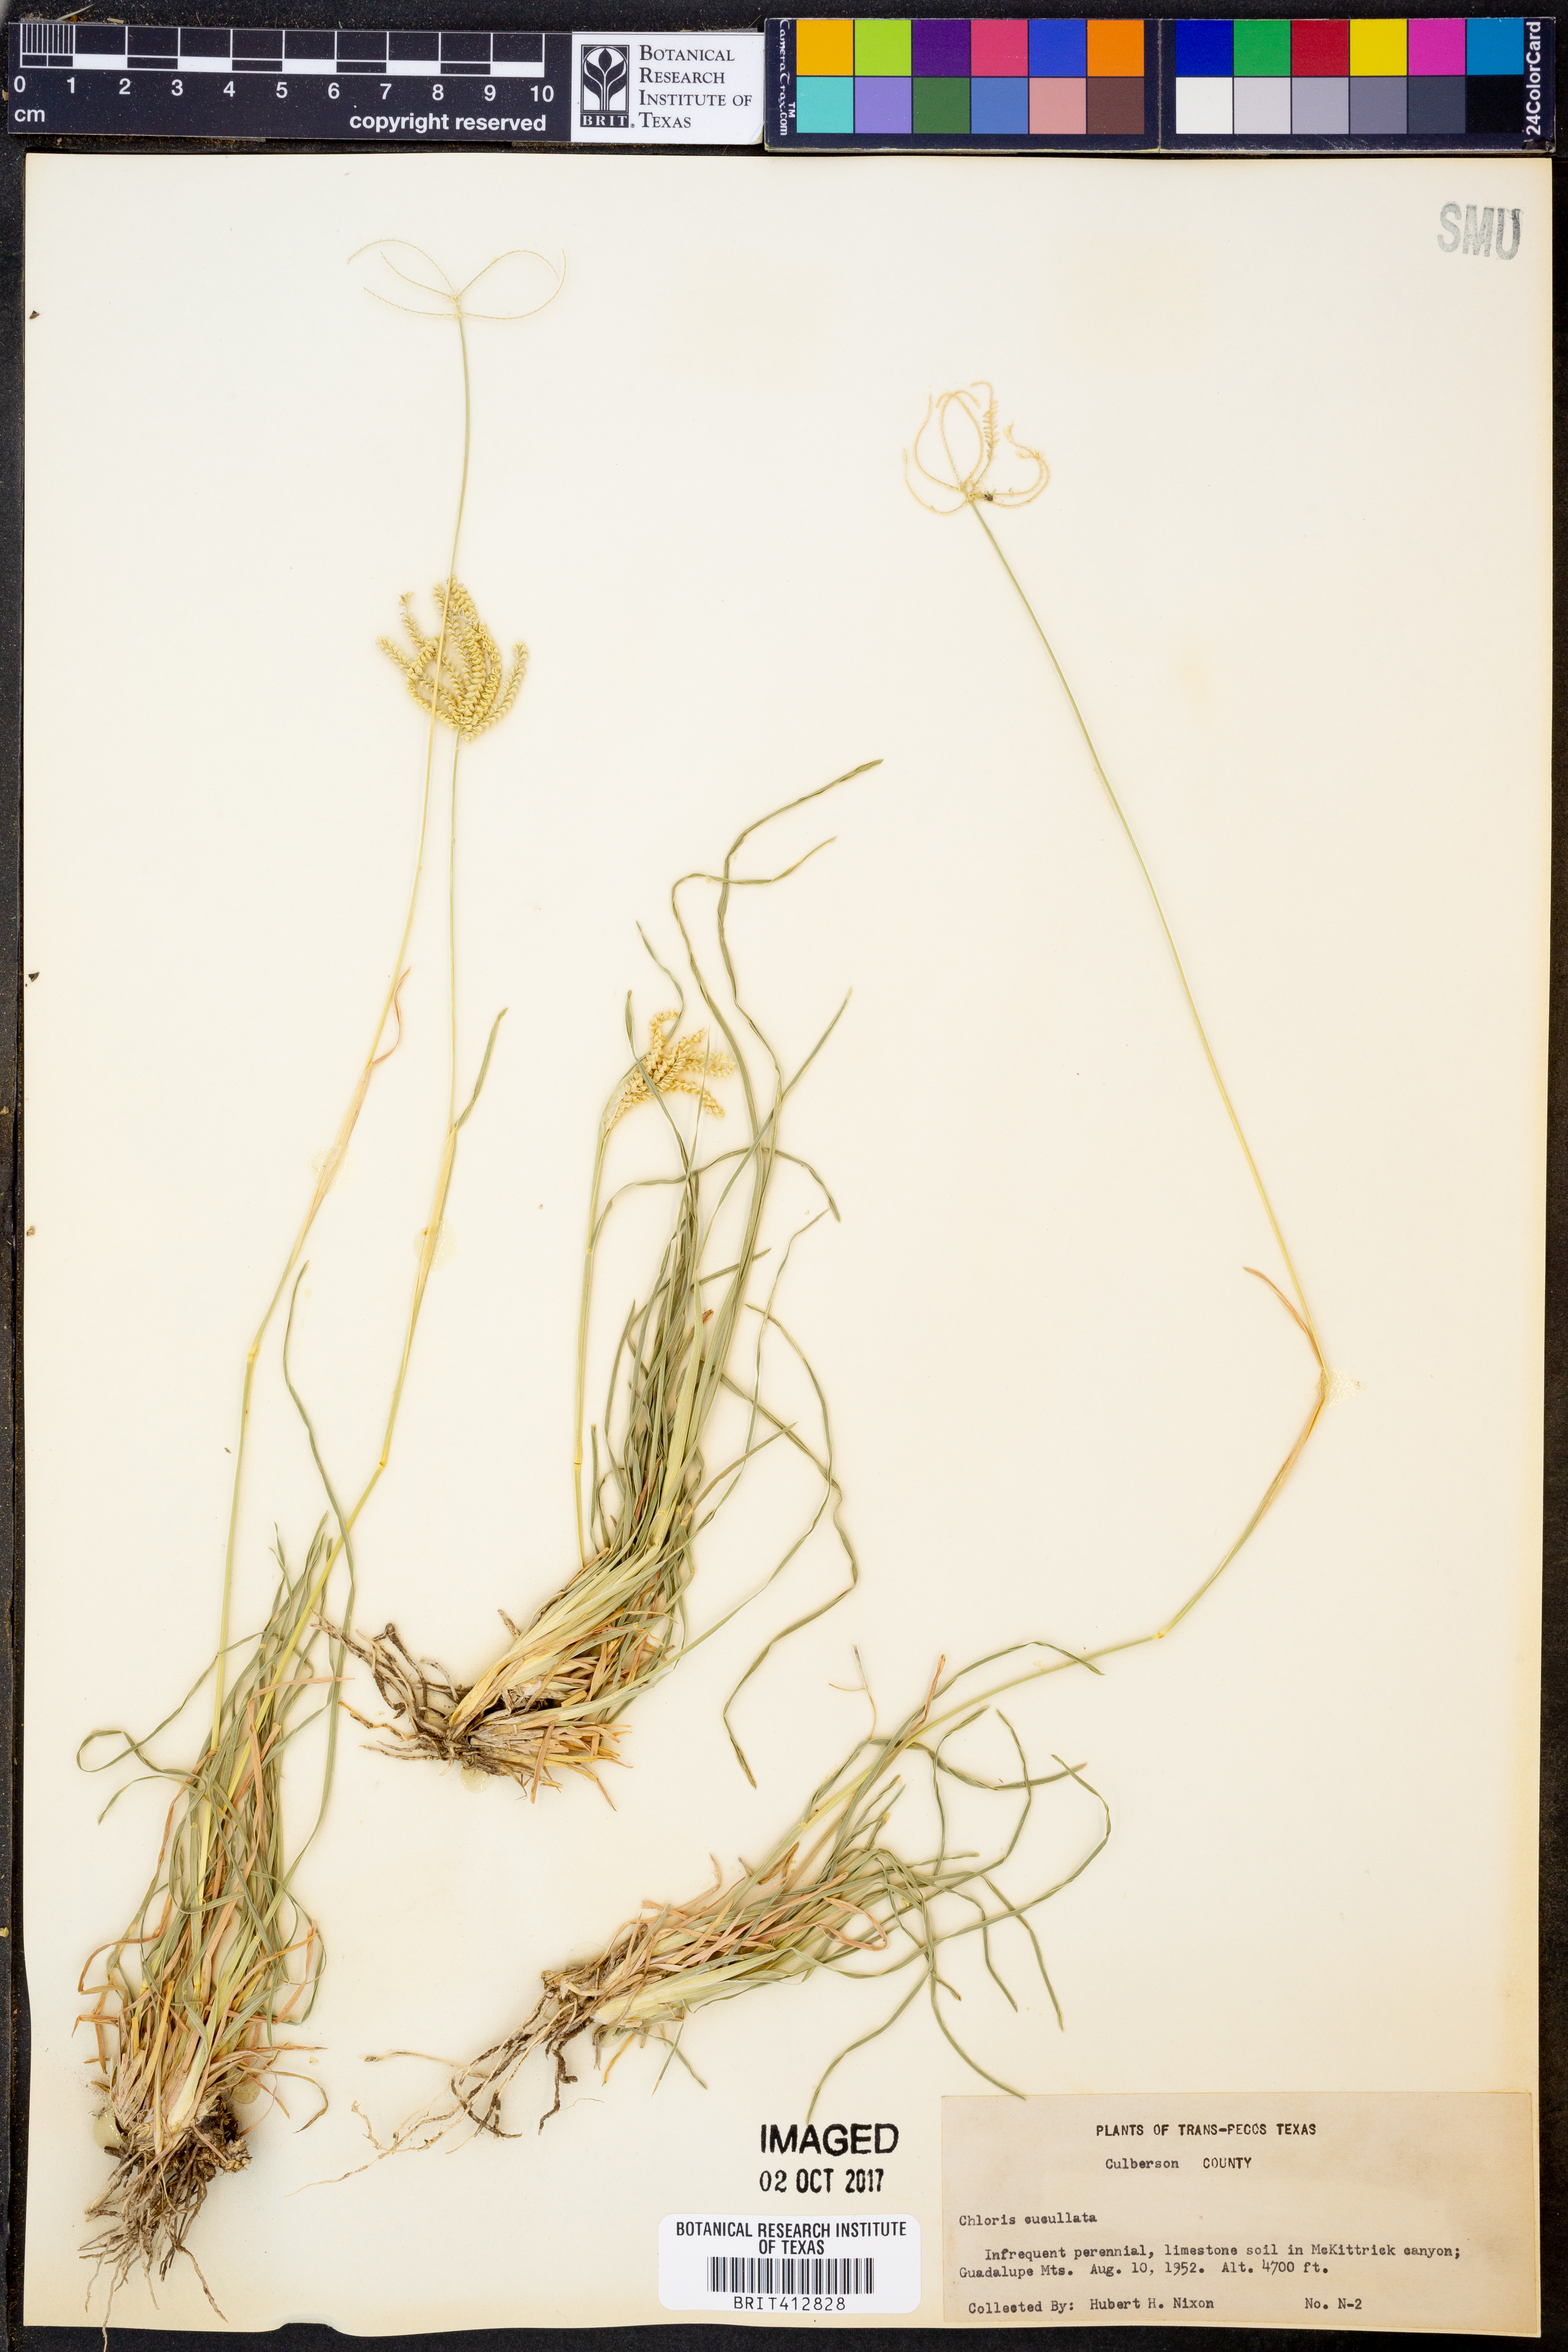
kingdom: Plantae
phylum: Tracheophyta
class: Liliopsida
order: Poales
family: Poaceae
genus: Chloris
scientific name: Chloris cucullata
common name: Hooded windmill grass
